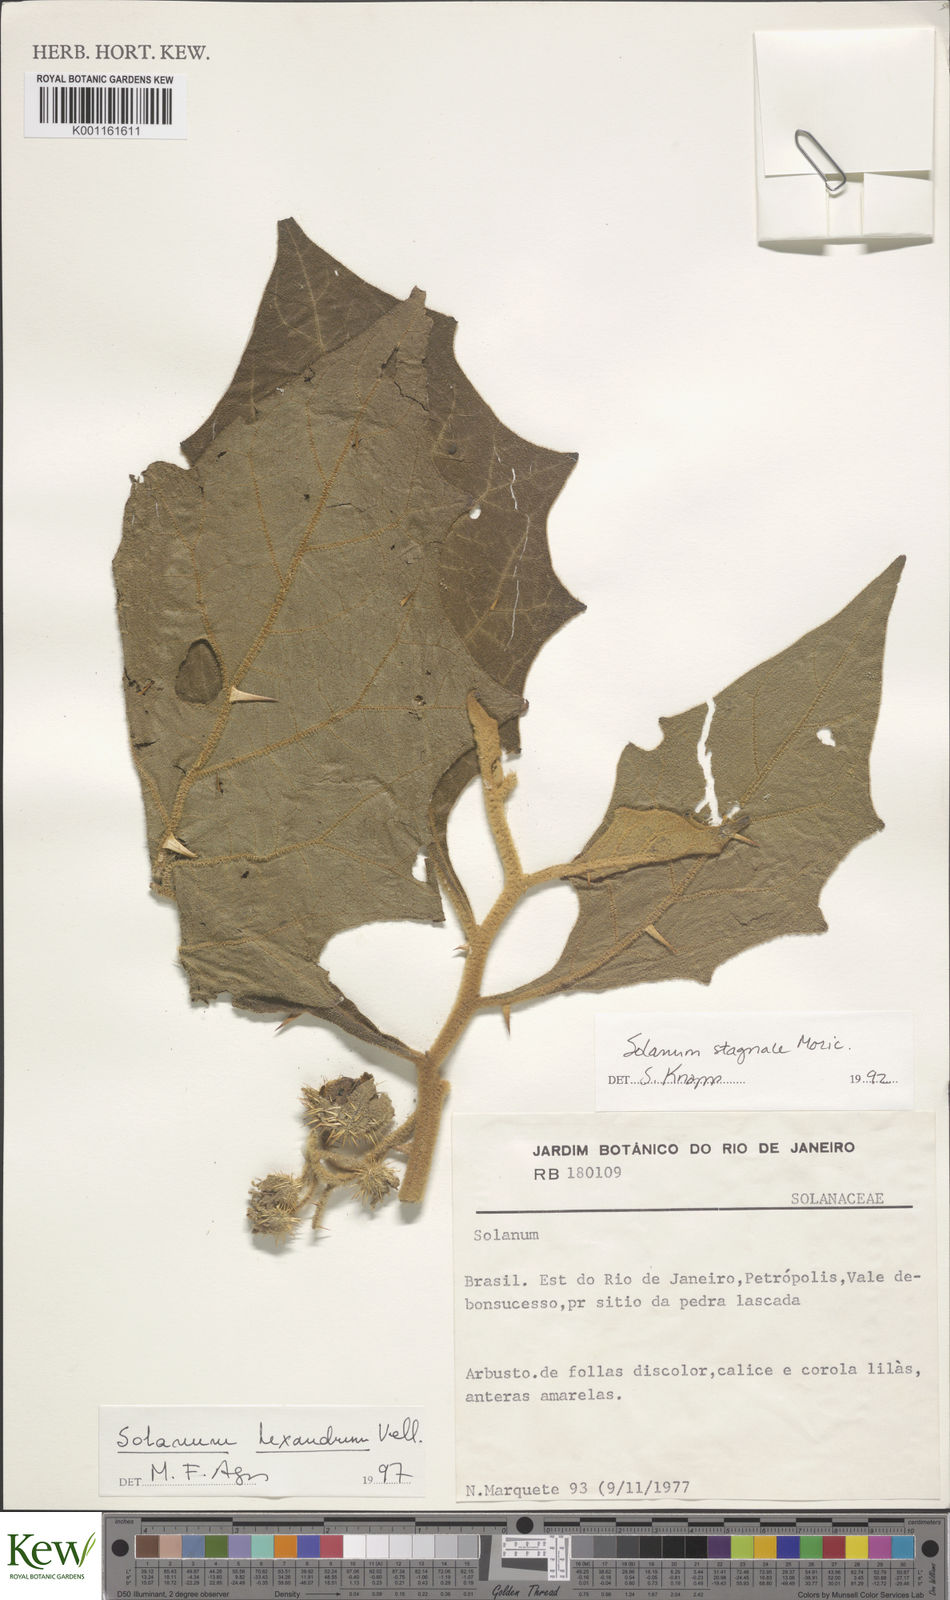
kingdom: Plantae
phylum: Tracheophyta
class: Magnoliopsida
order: Solanales
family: Solanaceae
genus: Solanum
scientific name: Solanum hexandrum
